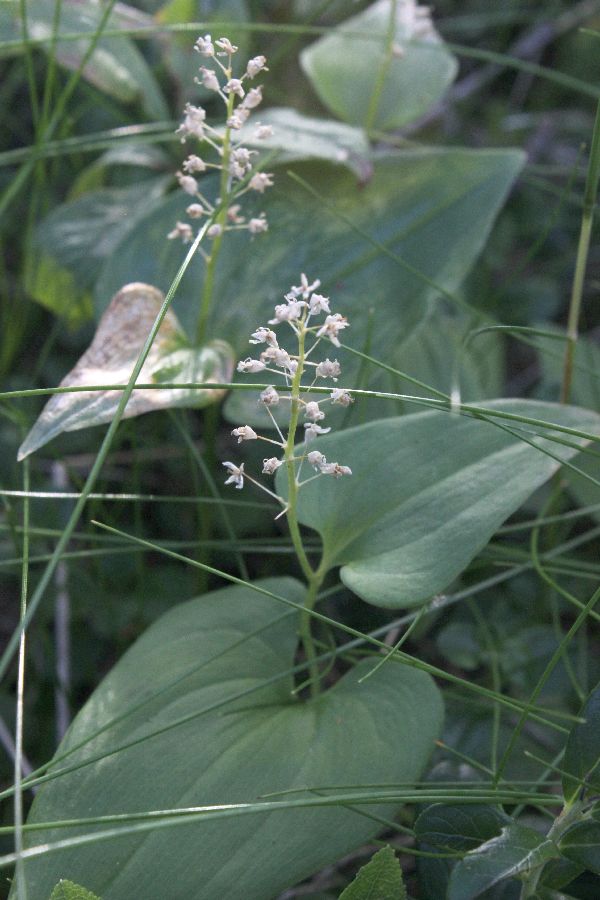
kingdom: Plantae
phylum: Tracheophyta
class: Liliopsida
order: Asparagales
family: Asparagaceae
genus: Maianthemum
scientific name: Maianthemum bifolium
